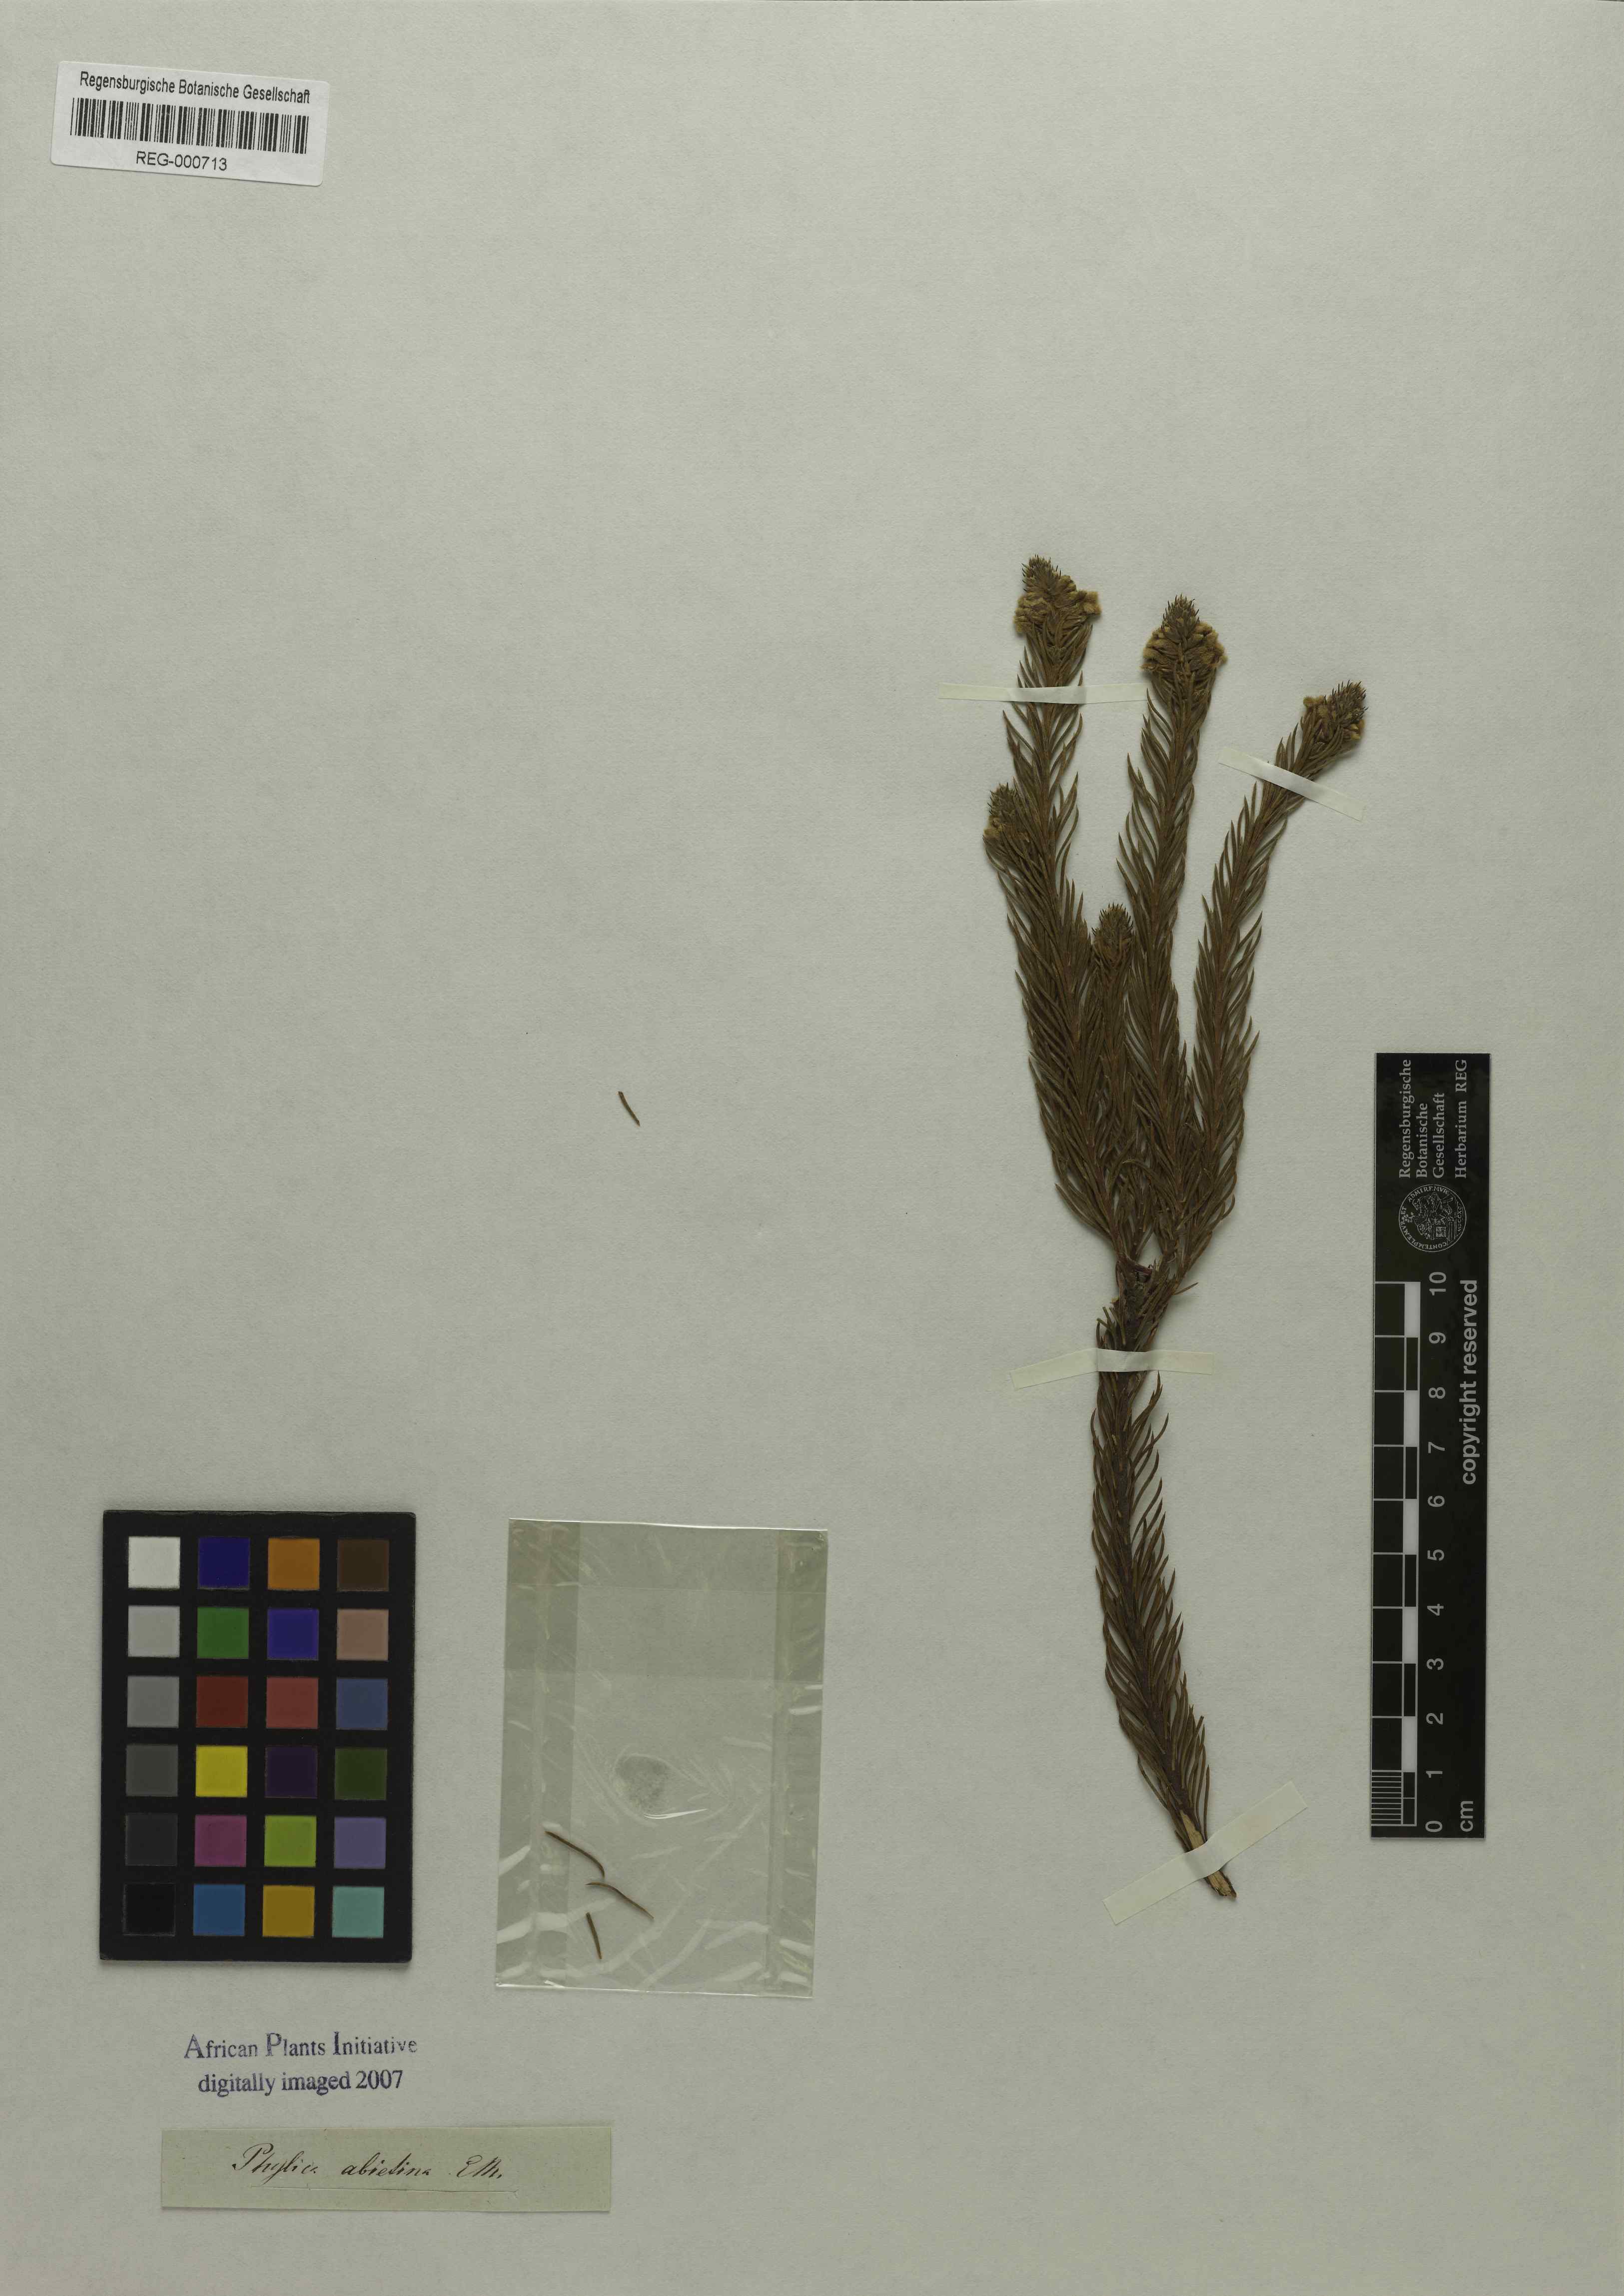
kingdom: Plantae
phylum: Tracheophyta
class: Magnoliopsida
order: Rosales
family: Rhamnaceae
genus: Phylica
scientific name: Phylica abietina
